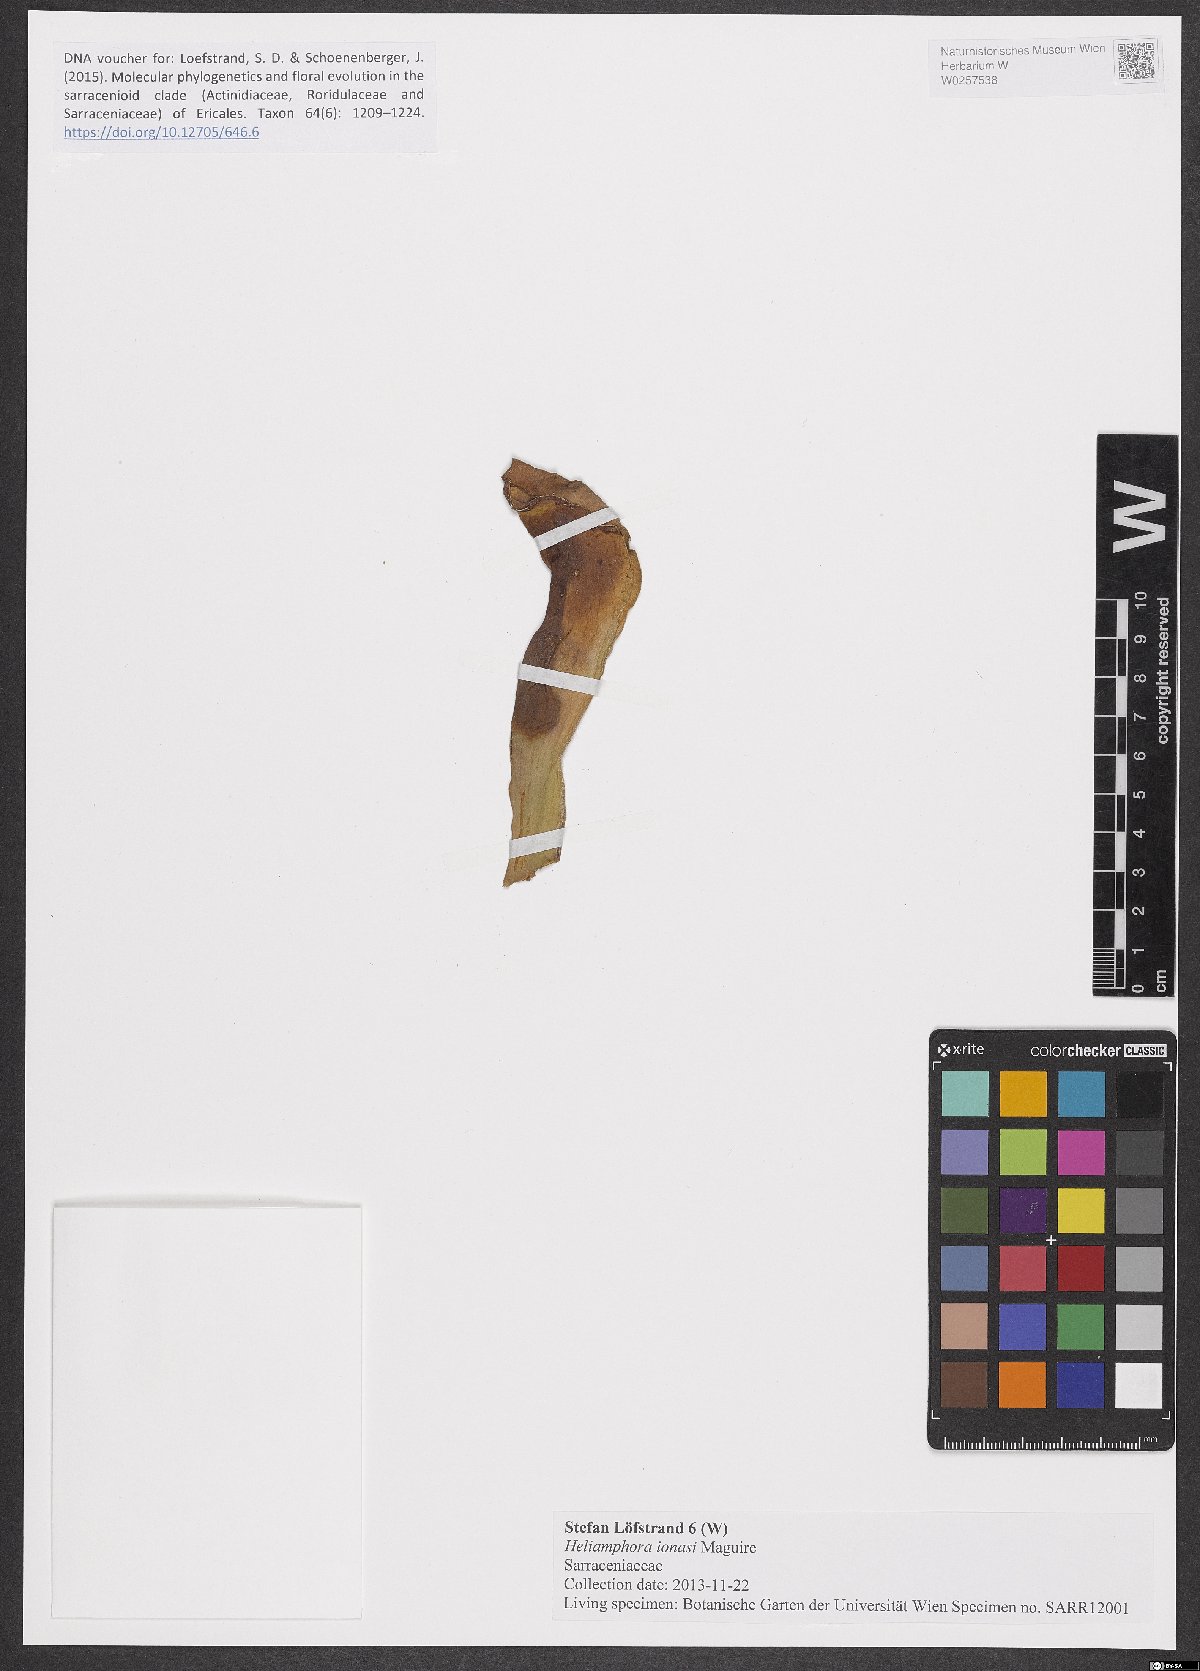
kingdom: Plantae
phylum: Tracheophyta
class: Magnoliopsida
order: Ericales
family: Sarraceniaceae
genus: Heliamphora
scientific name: Heliamphora ionasi
